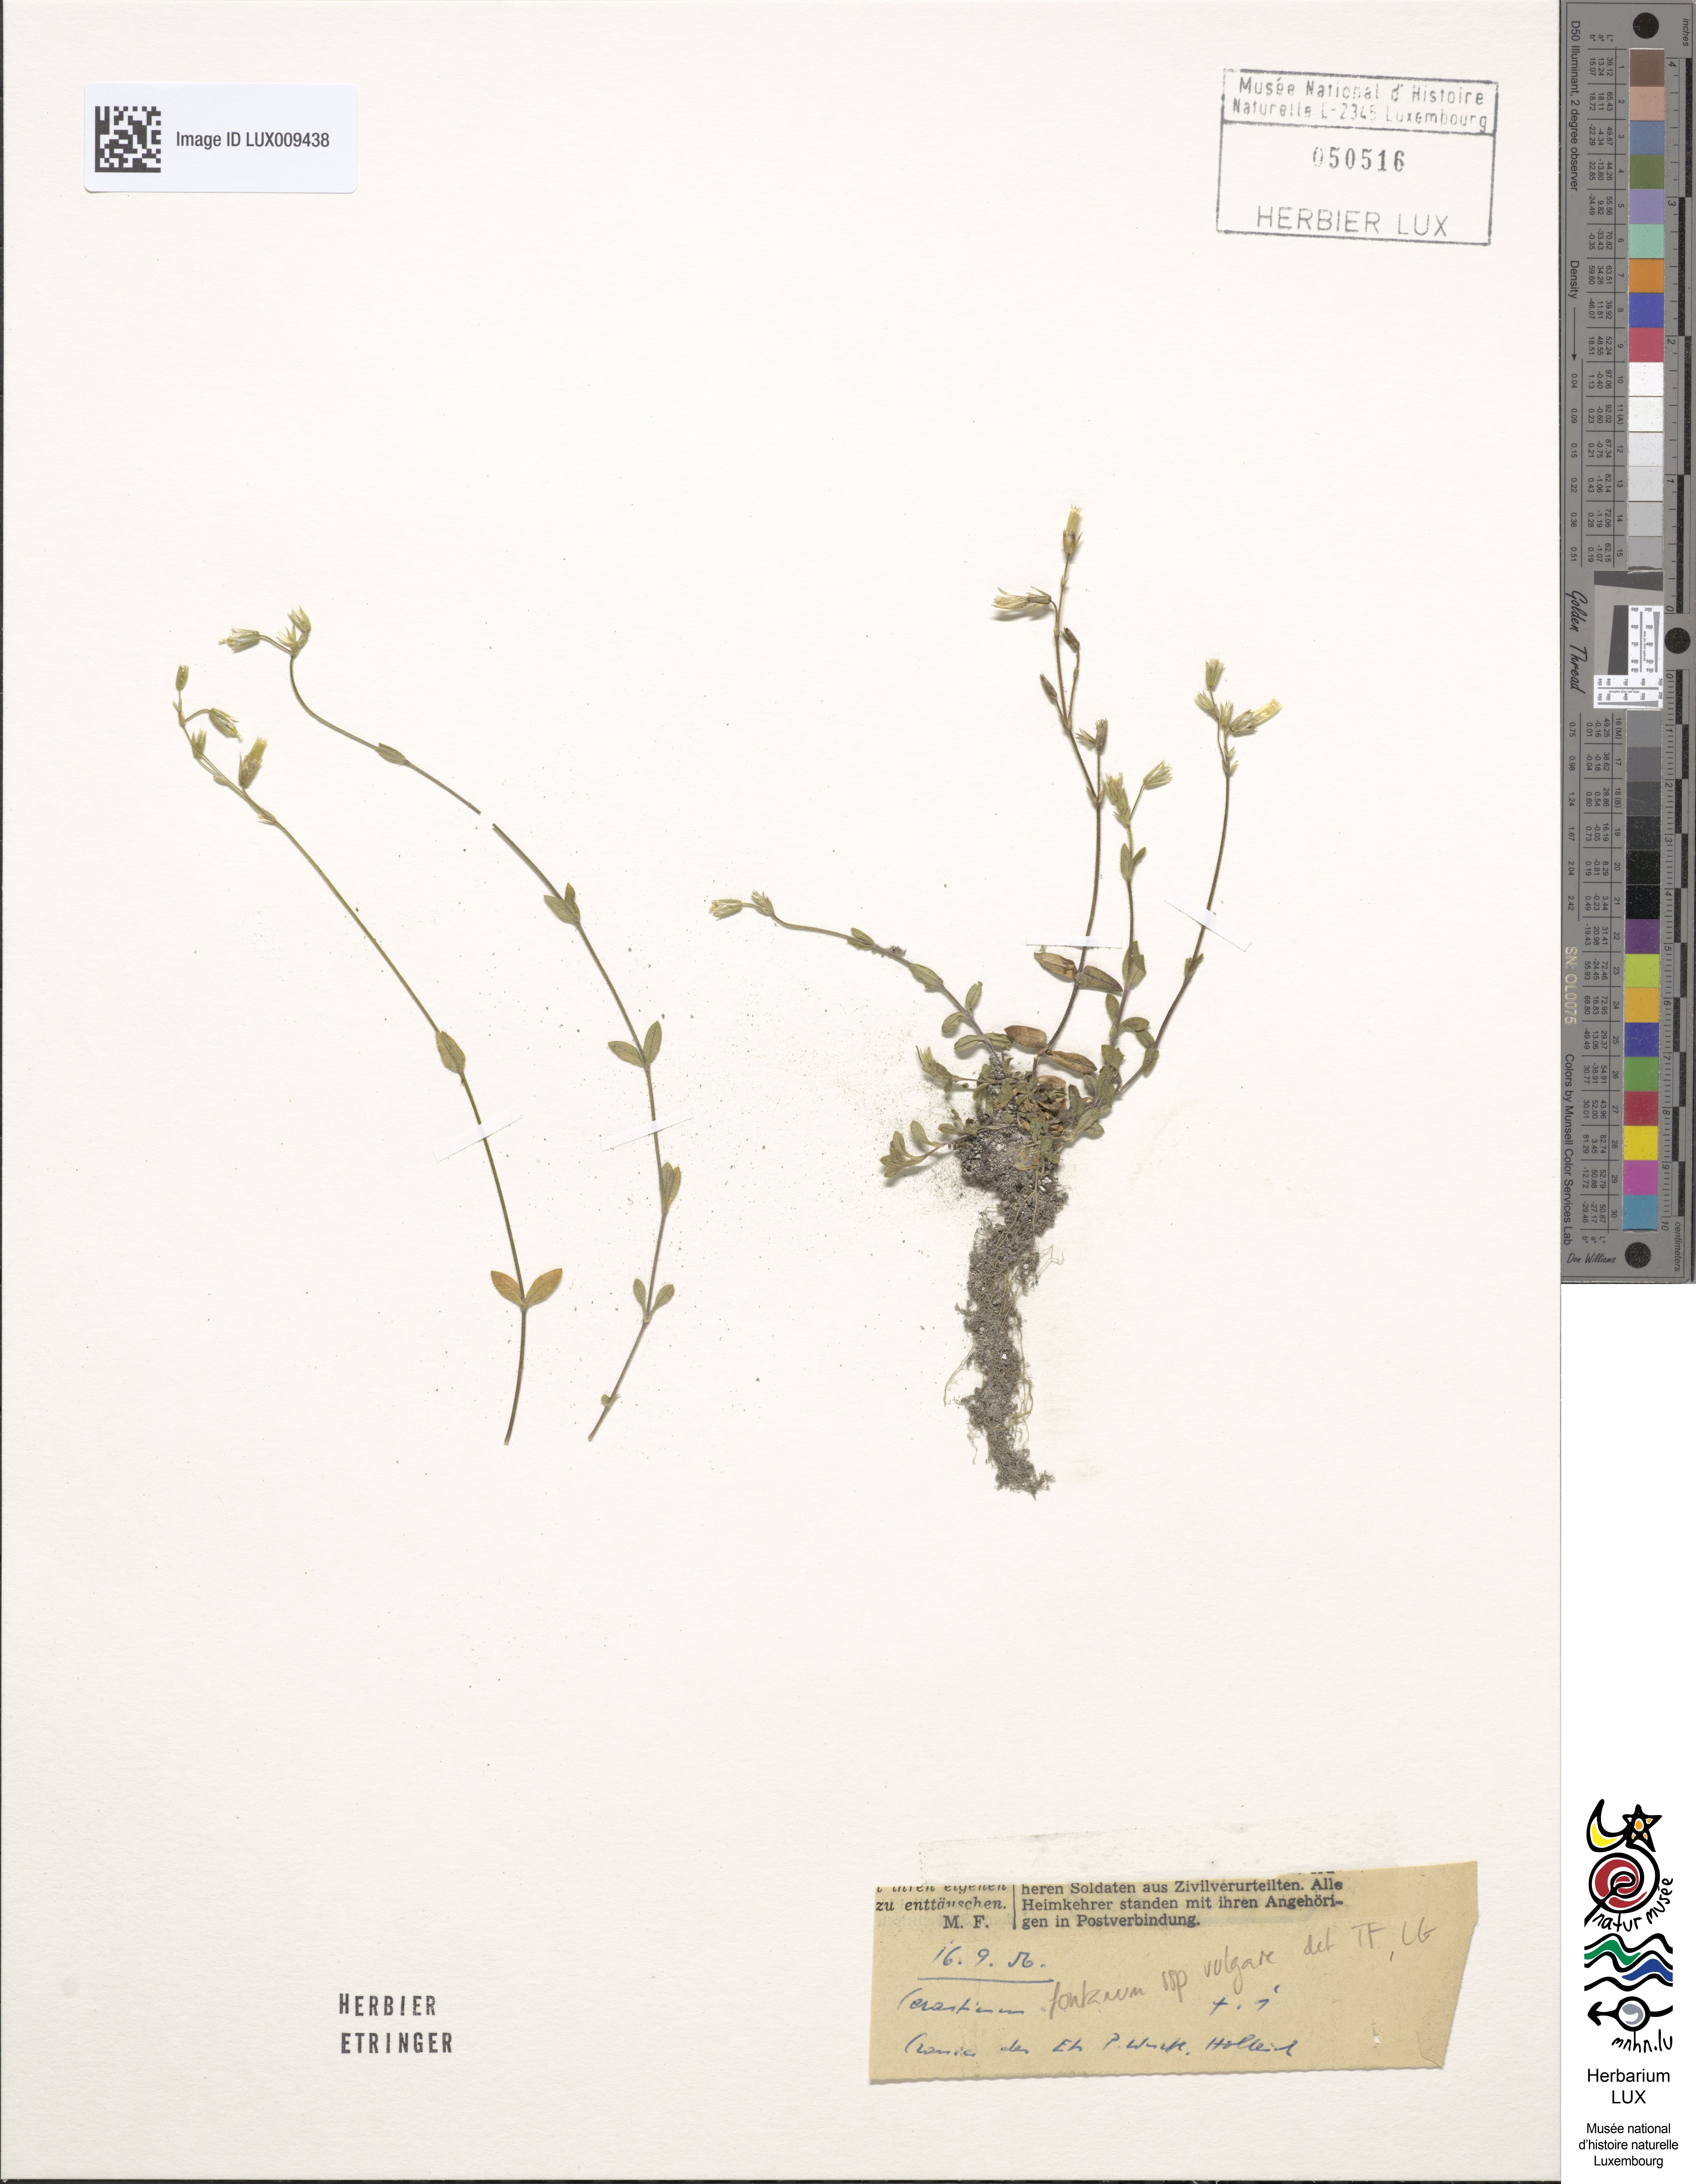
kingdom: Plantae
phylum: Tracheophyta
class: Magnoliopsida
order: Caryophyllales
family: Caryophyllaceae
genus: Cerastium
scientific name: Cerastium holosteoides
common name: Big chickweed
